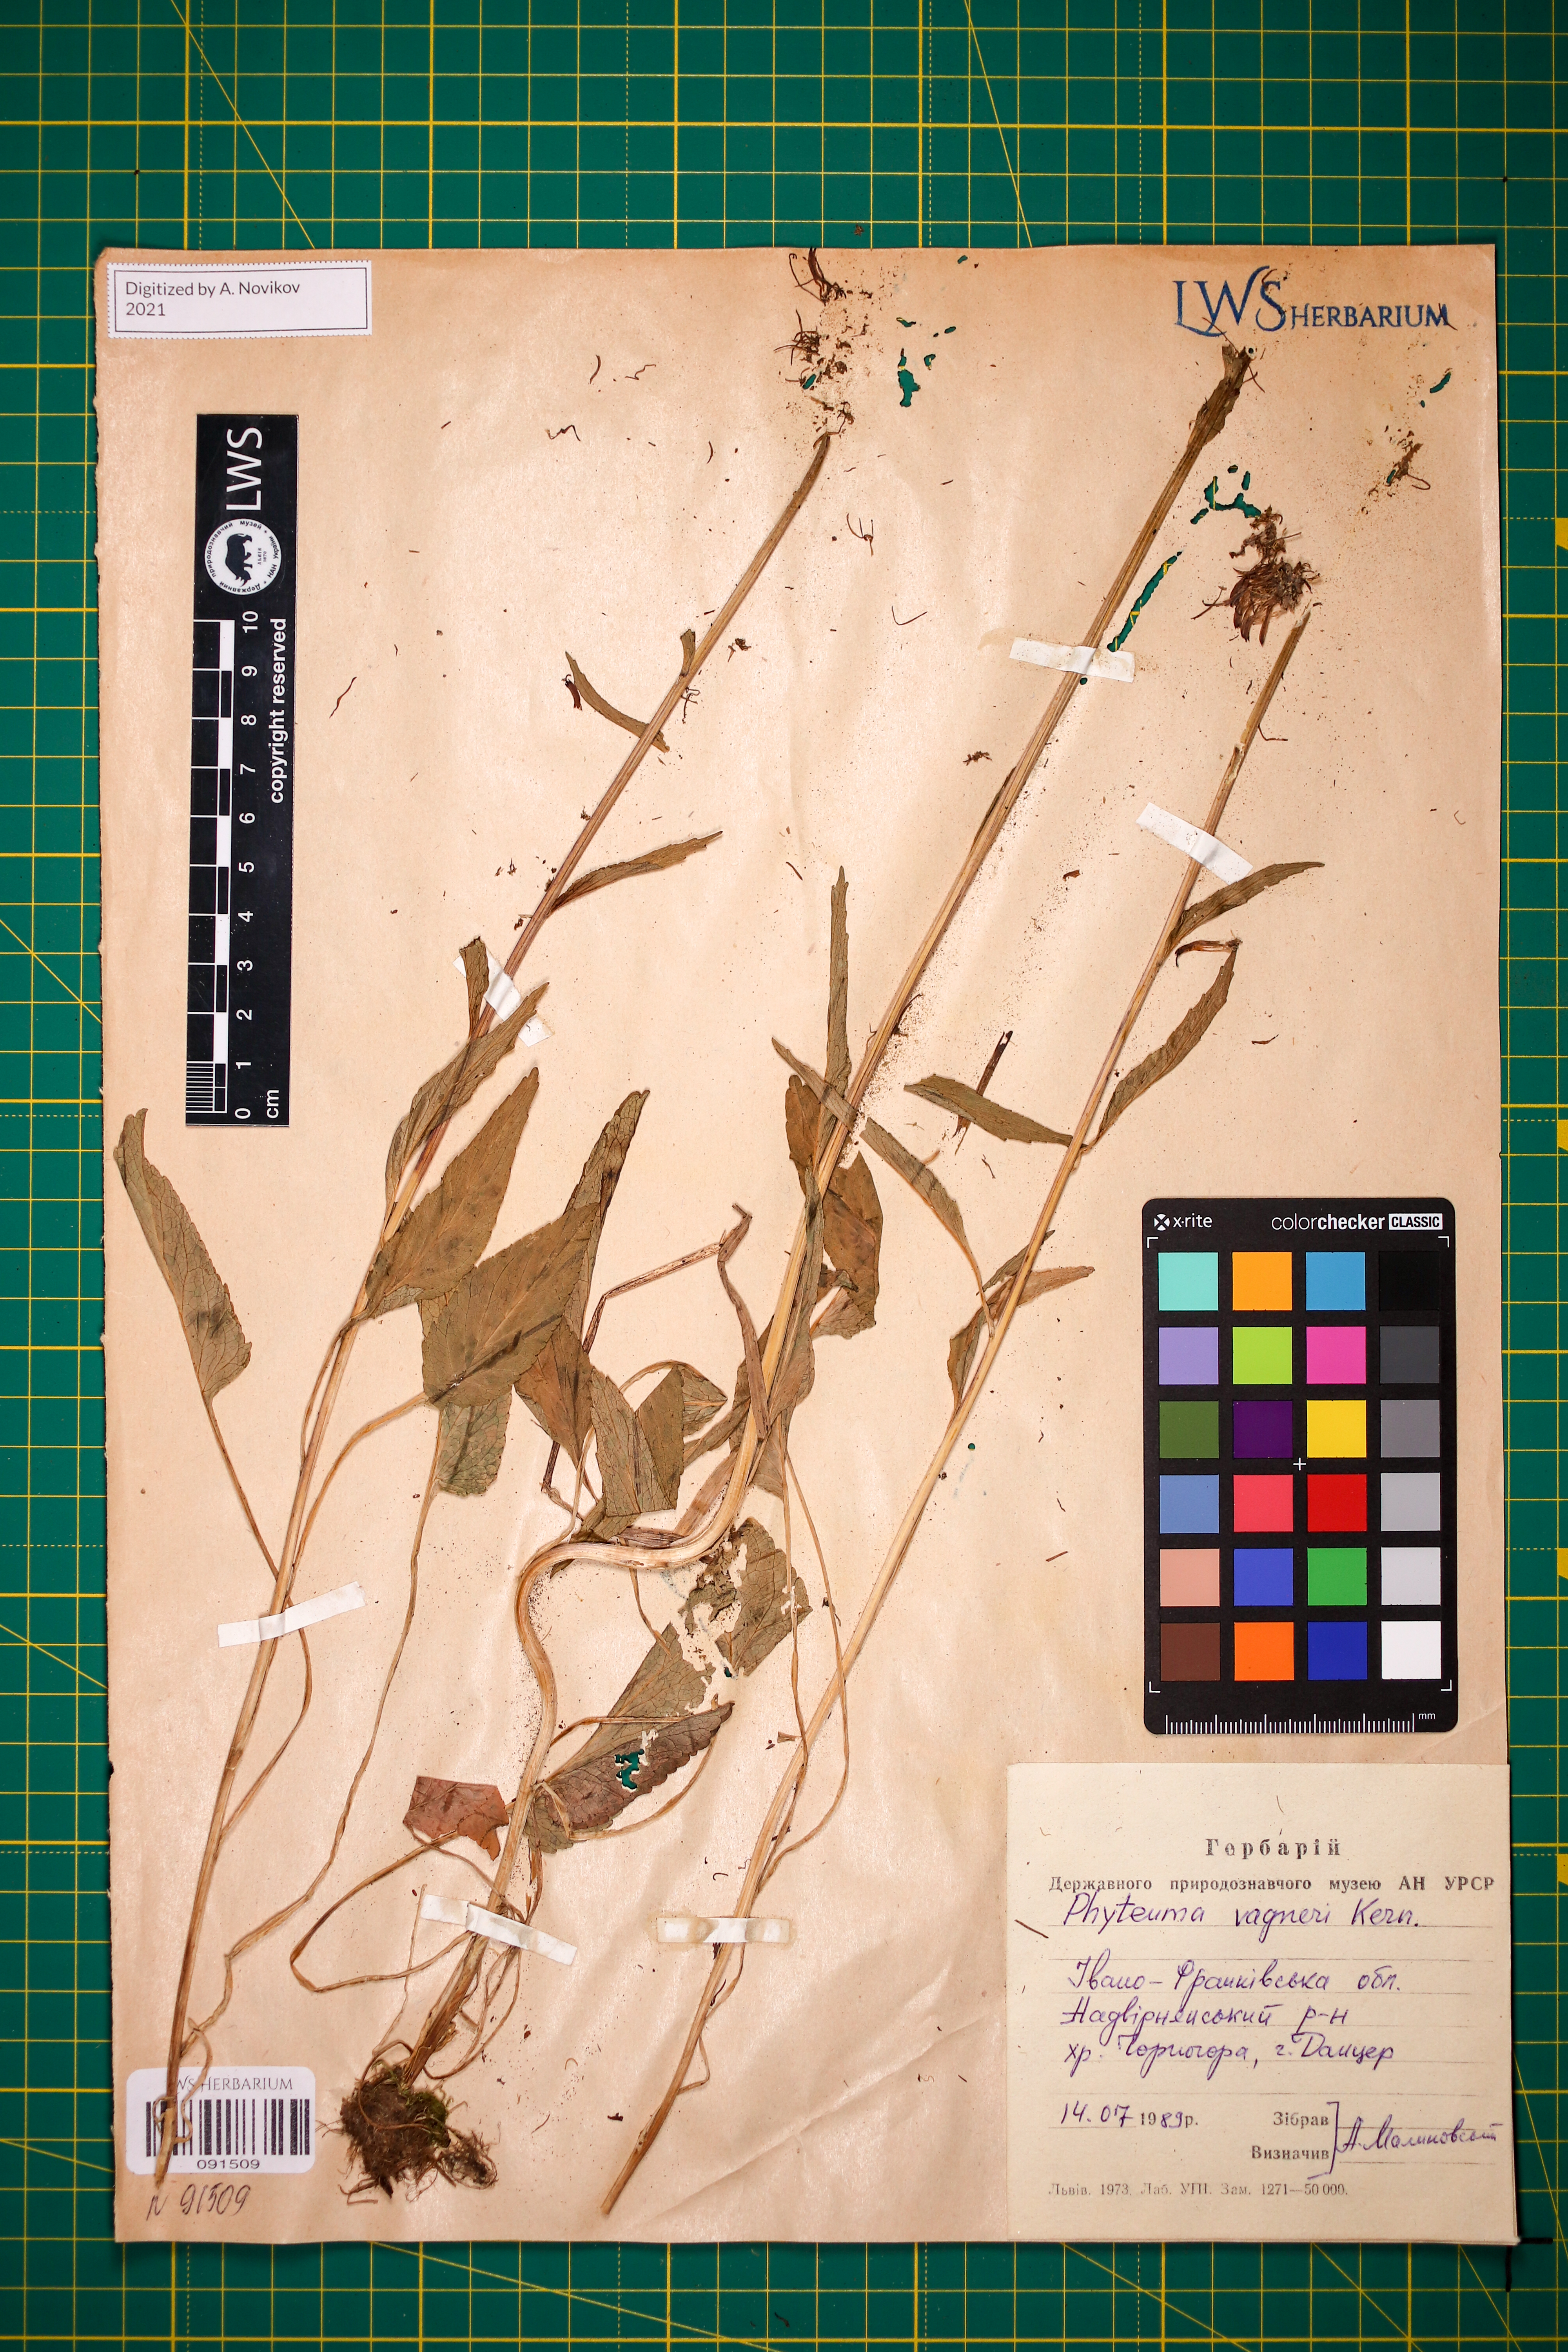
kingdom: Plantae
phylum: Tracheophyta
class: Magnoliopsida
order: Asterales
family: Campanulaceae
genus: Phyteuma
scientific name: Phyteuma vagneri
